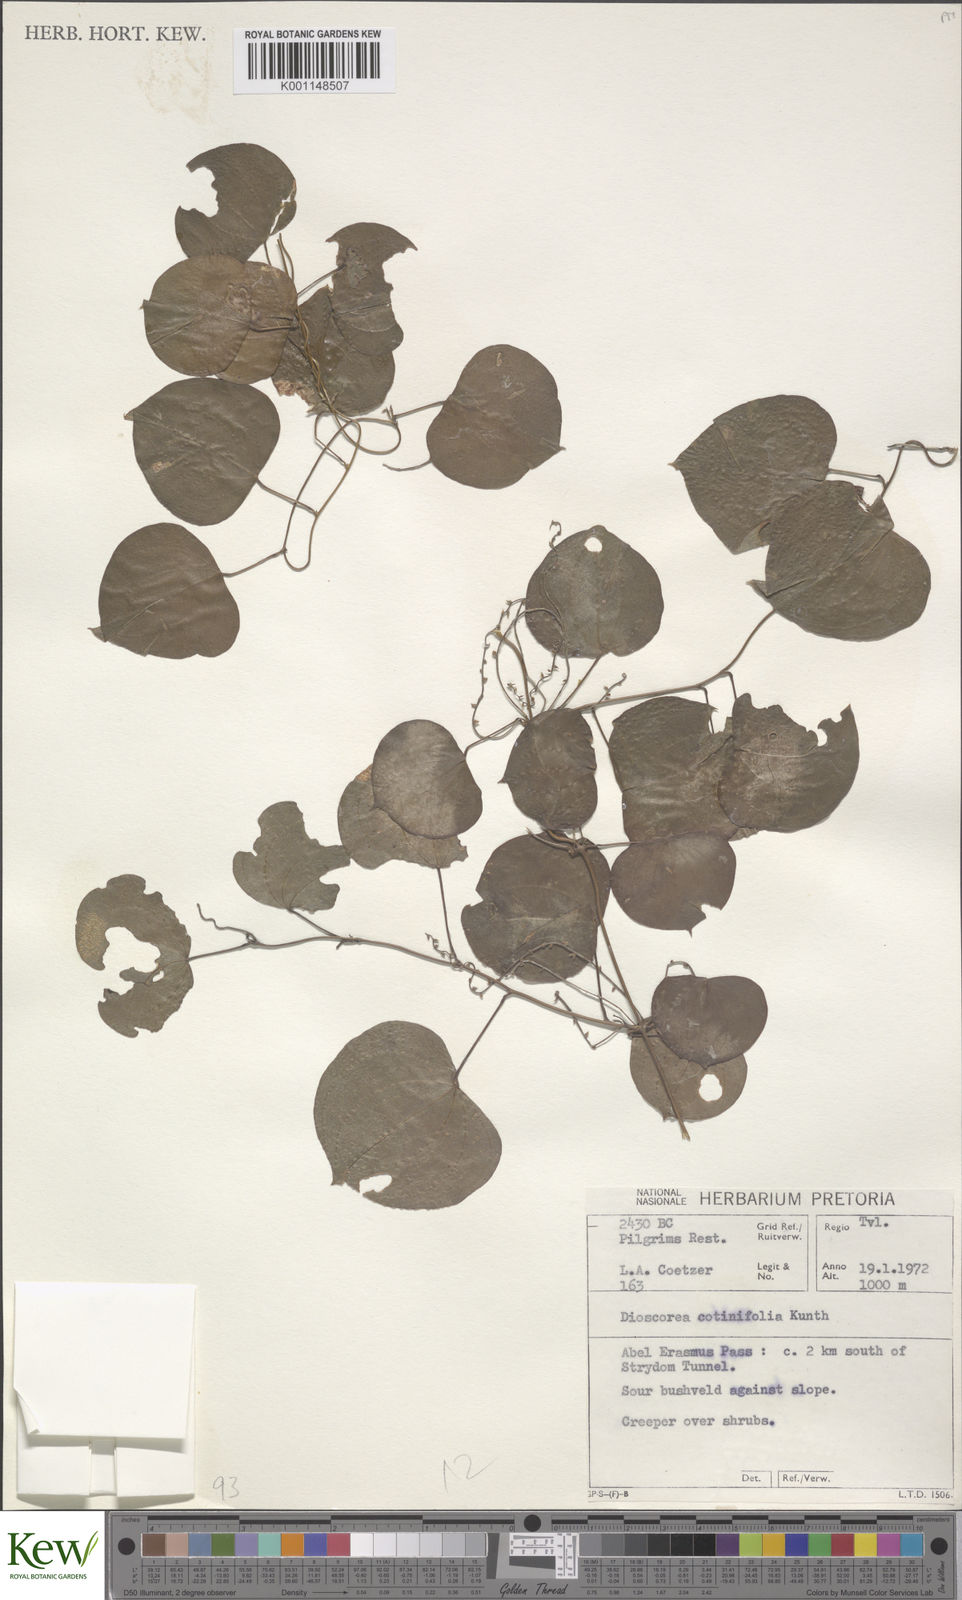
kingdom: Plantae
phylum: Tracheophyta
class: Liliopsida
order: Dioscoreales
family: Dioscoreaceae
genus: Dioscorea
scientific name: Dioscorea cotinifolia
